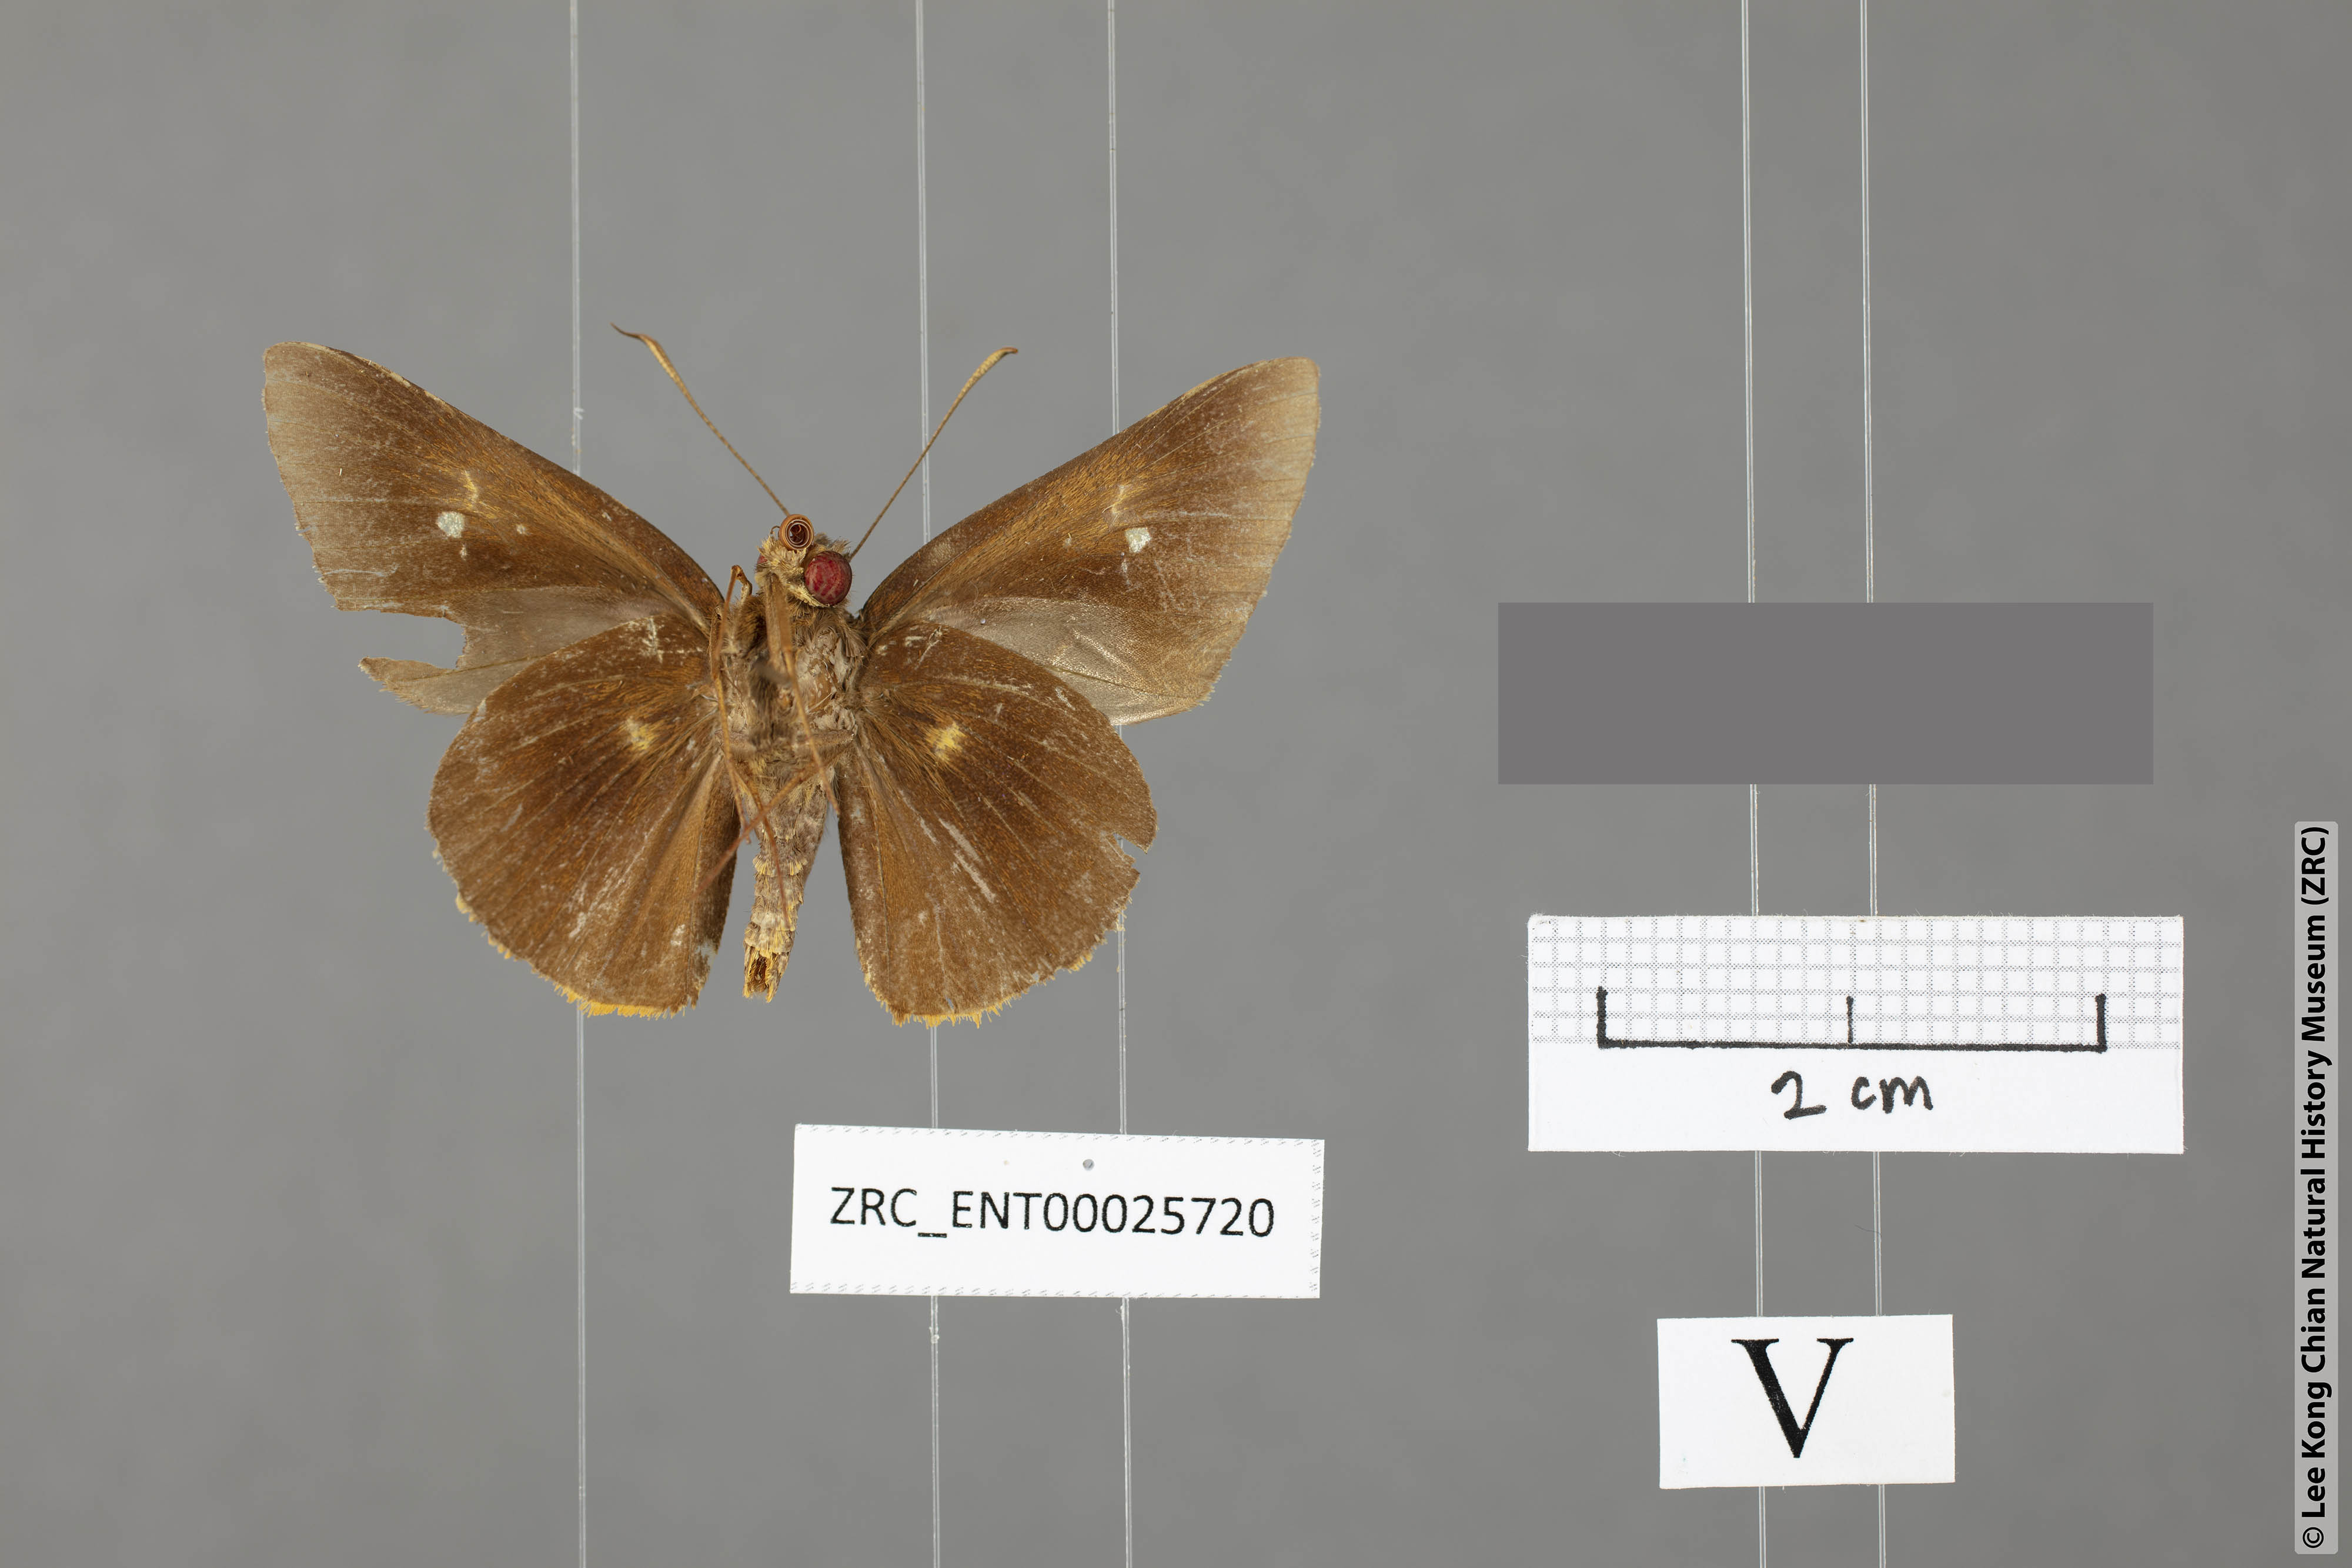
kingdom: Animalia
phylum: Arthropoda
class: Insecta
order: Lepidoptera
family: Hesperiidae
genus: Zela
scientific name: Zela elioti
